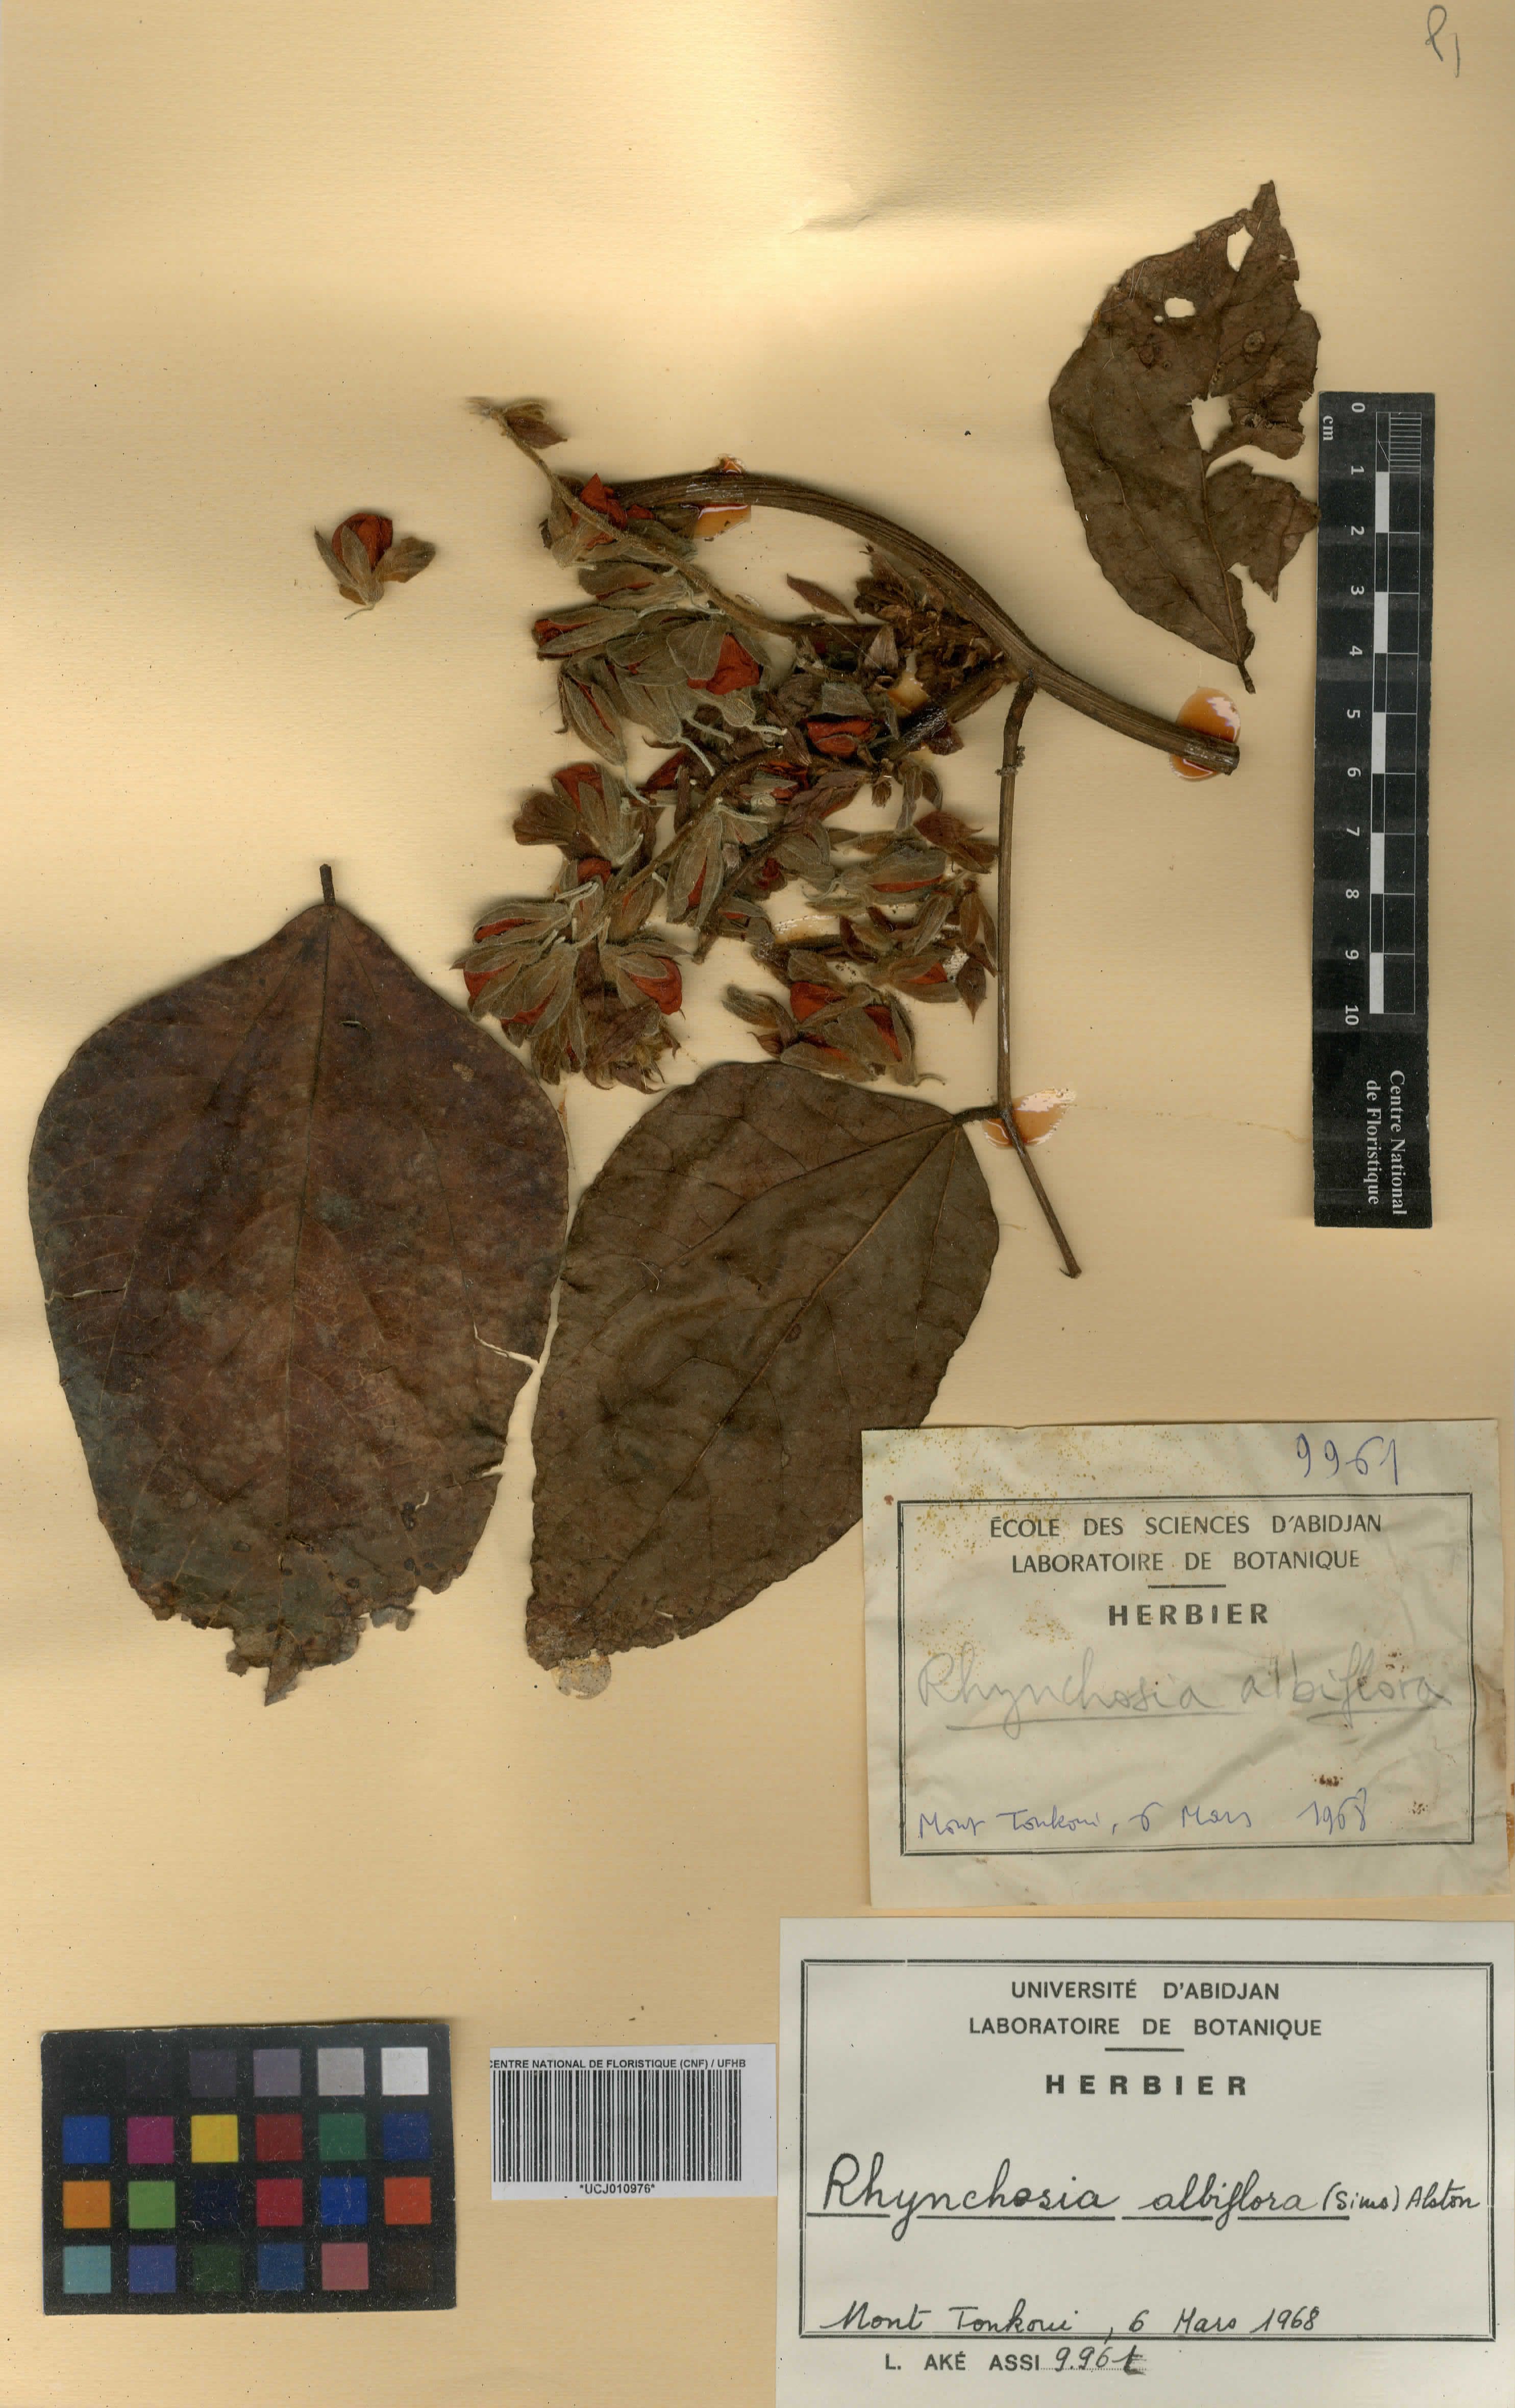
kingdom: Plantae
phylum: Tracheophyta
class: Magnoliopsida
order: Fabales
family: Fabaceae
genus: Rhynchosia
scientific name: Rhynchosia hirta
